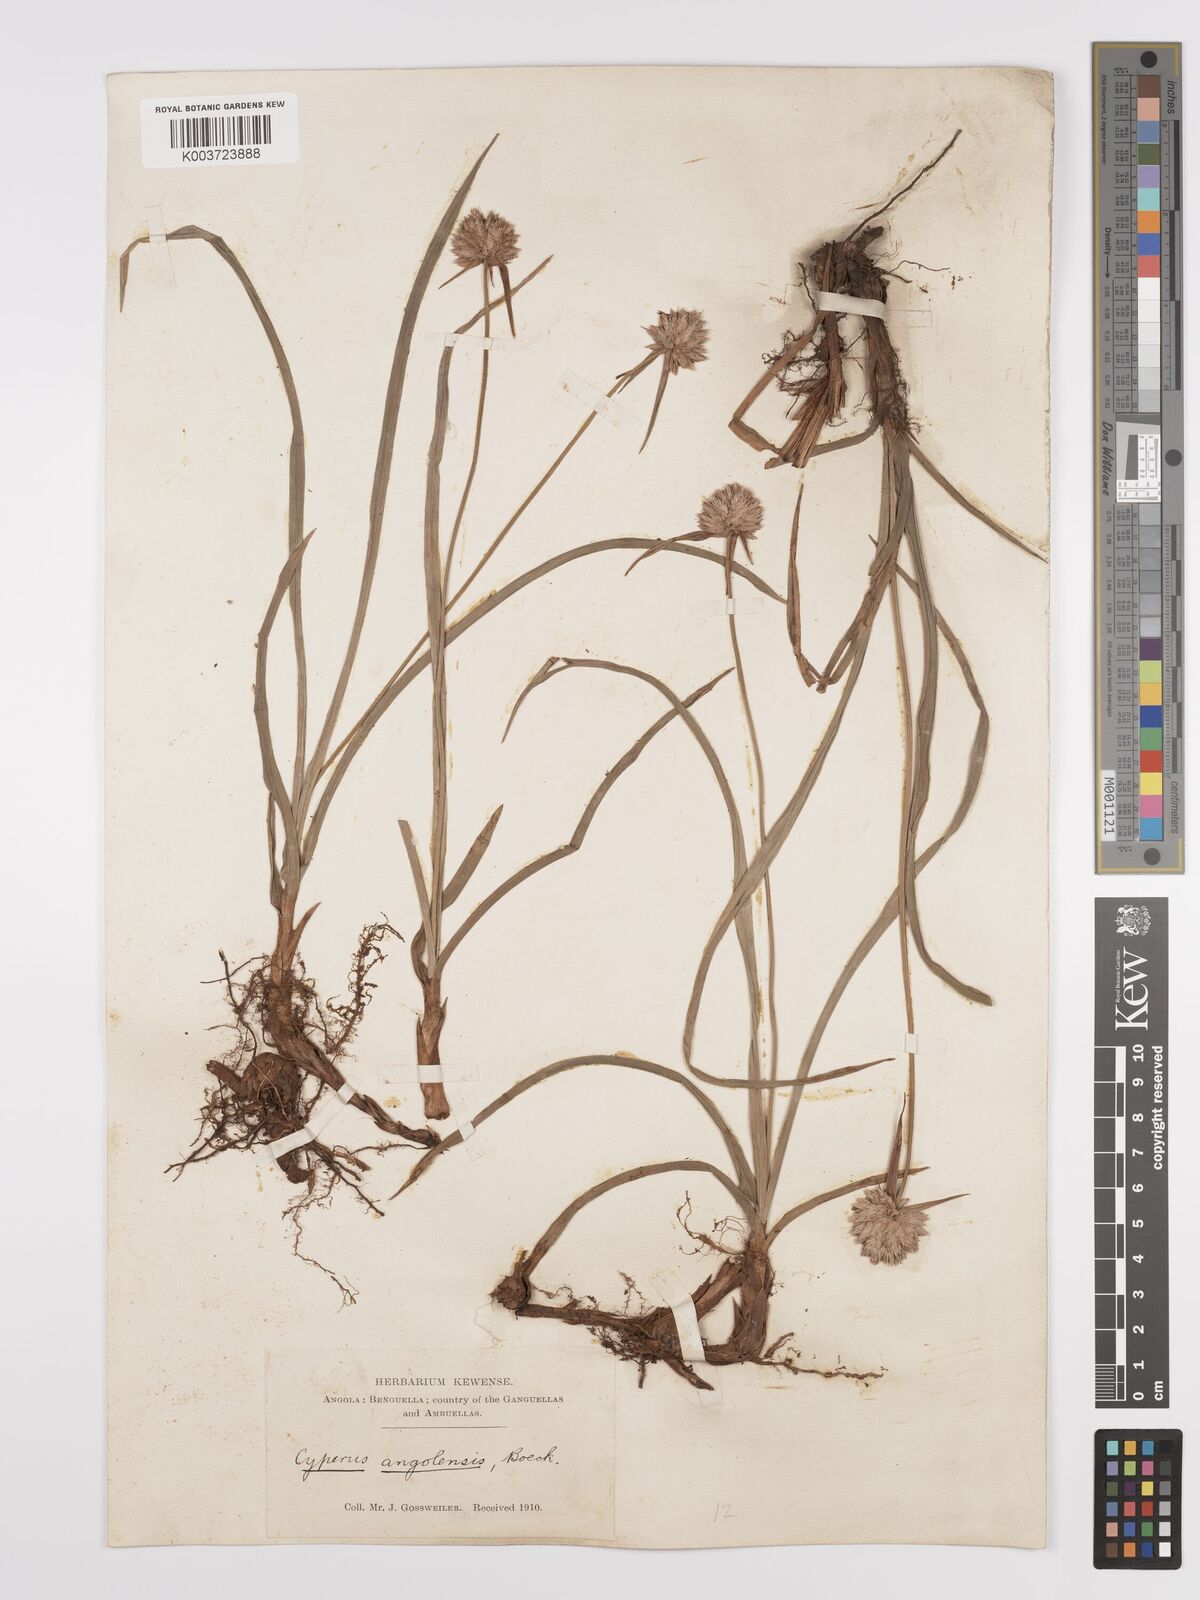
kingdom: Plantae
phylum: Tracheophyta
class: Liliopsida
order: Poales
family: Cyperaceae
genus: Cyperus
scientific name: Cyperus angolensis
